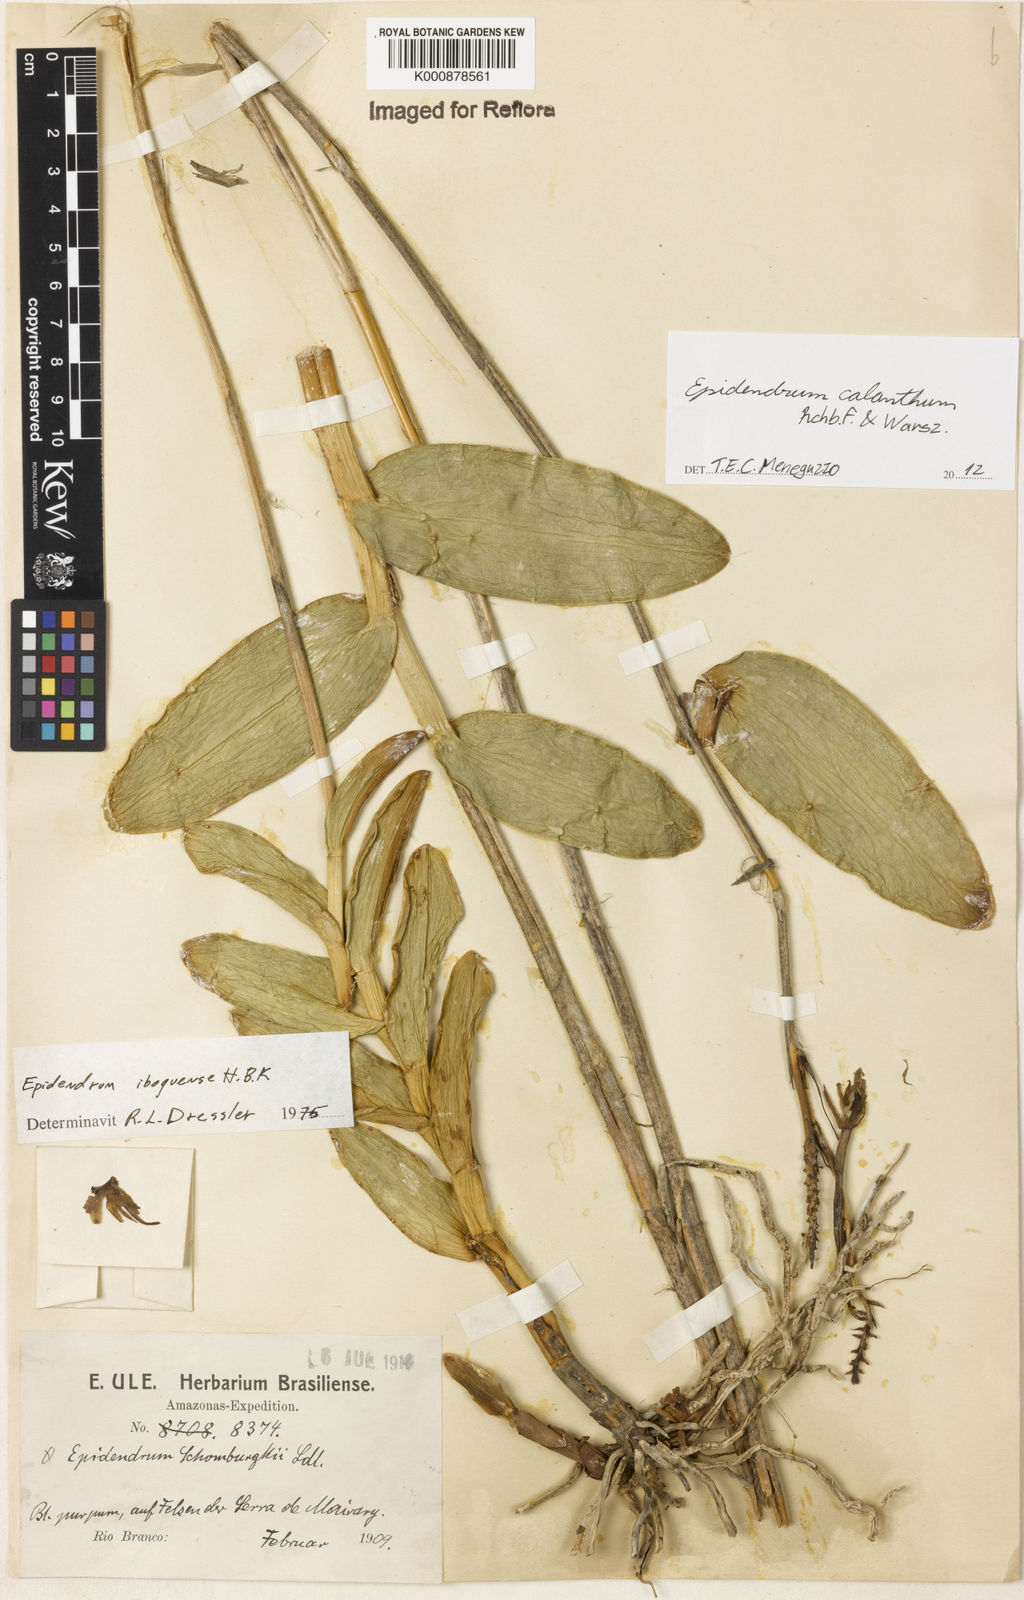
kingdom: Plantae
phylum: Tracheophyta
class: Liliopsida
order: Asparagales
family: Orchidaceae
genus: Epidendrum
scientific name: Epidendrum calanthum
